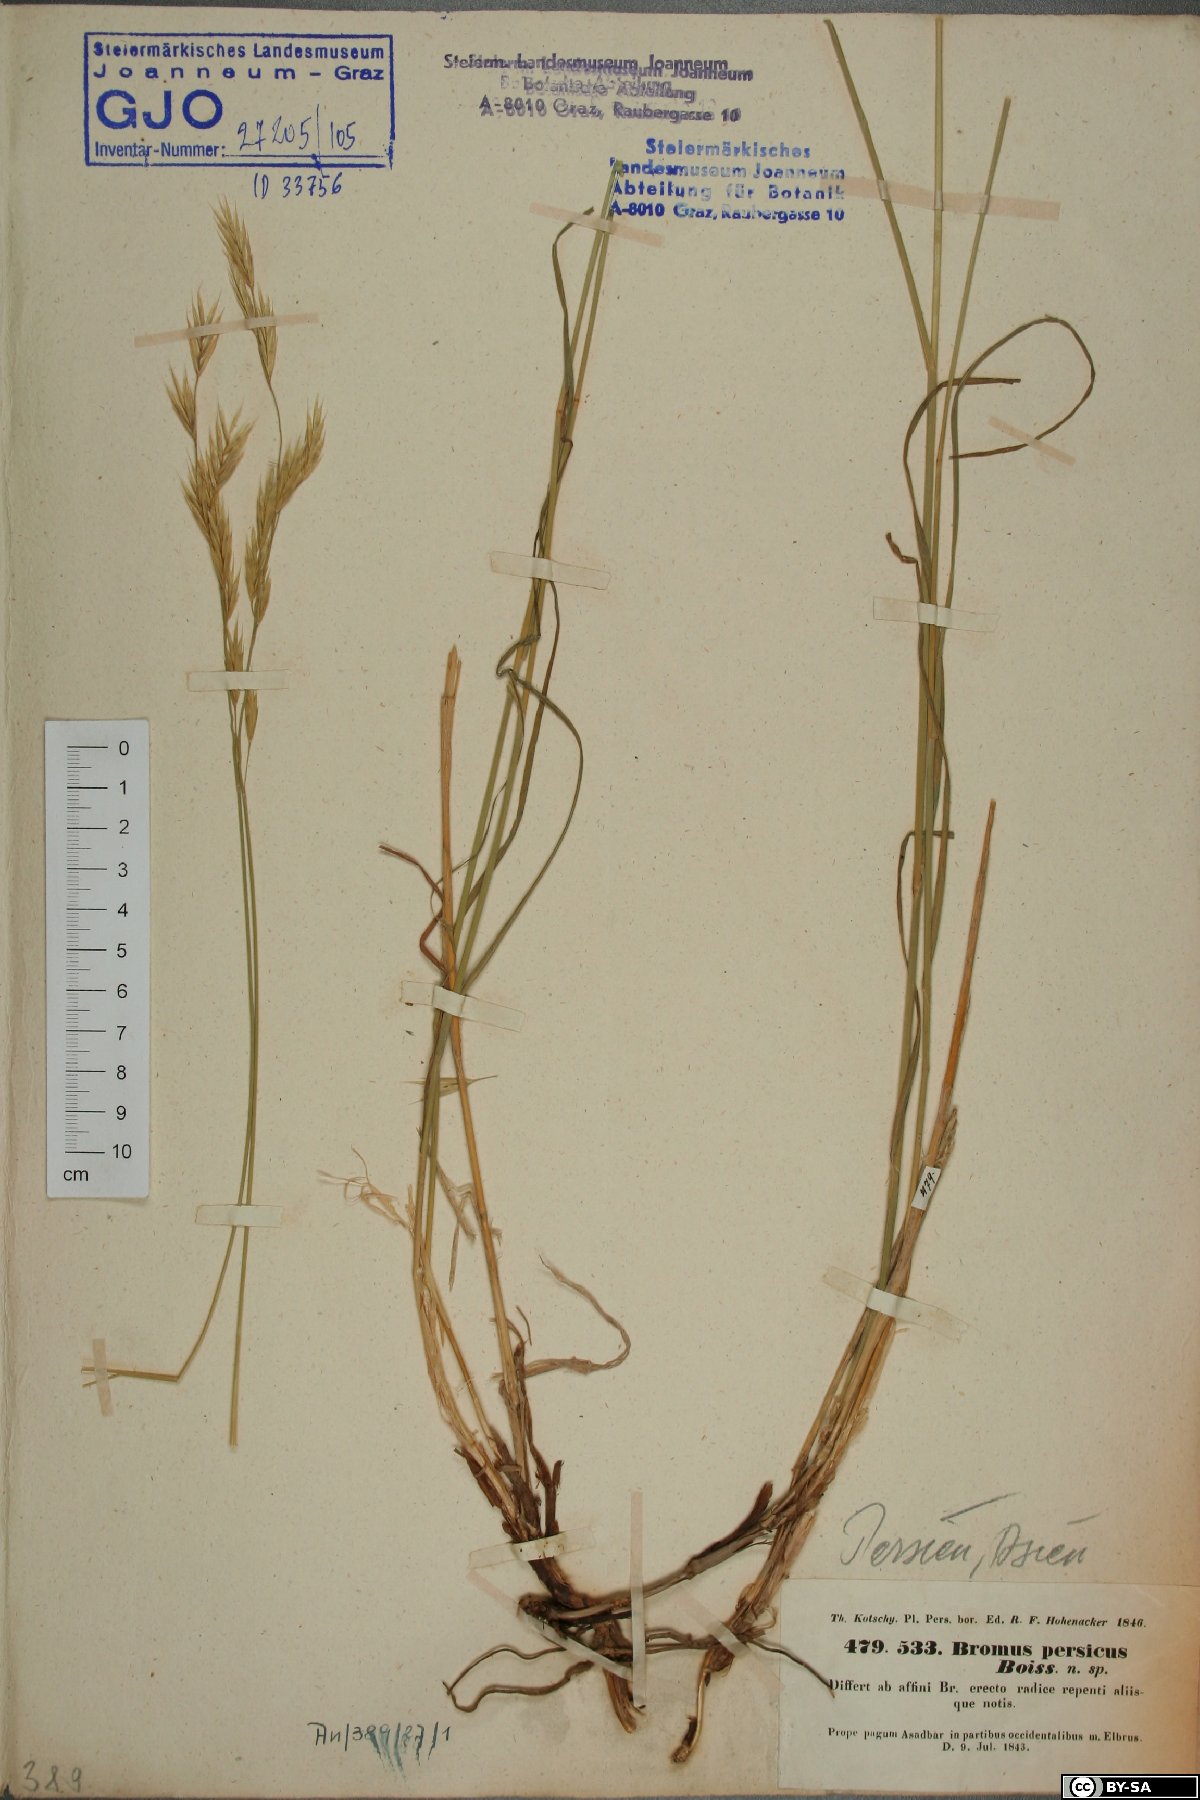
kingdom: Plantae
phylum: Tracheophyta
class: Liliopsida
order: Poales
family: Poaceae
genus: Bromus
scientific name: Bromus tomentosus
